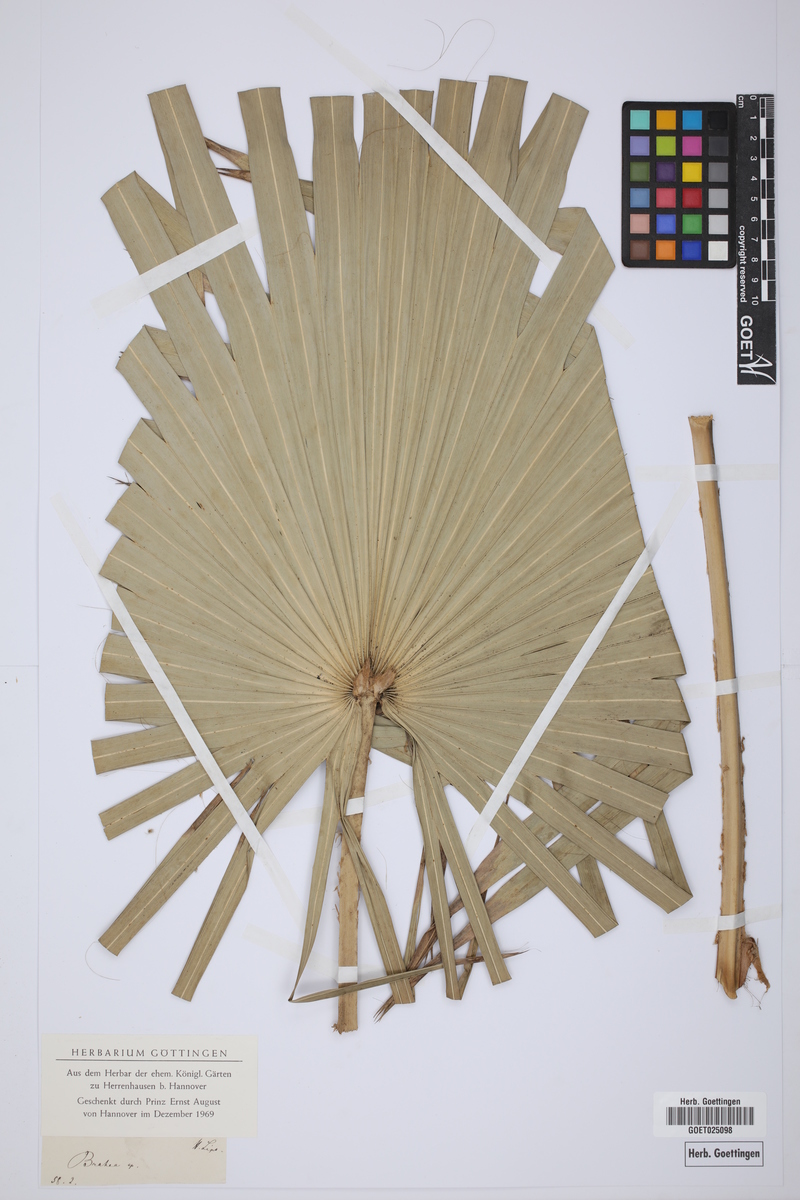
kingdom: Plantae
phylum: Tracheophyta
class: Liliopsida
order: Arecales
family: Arecaceae
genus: Brahea
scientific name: Brahea
